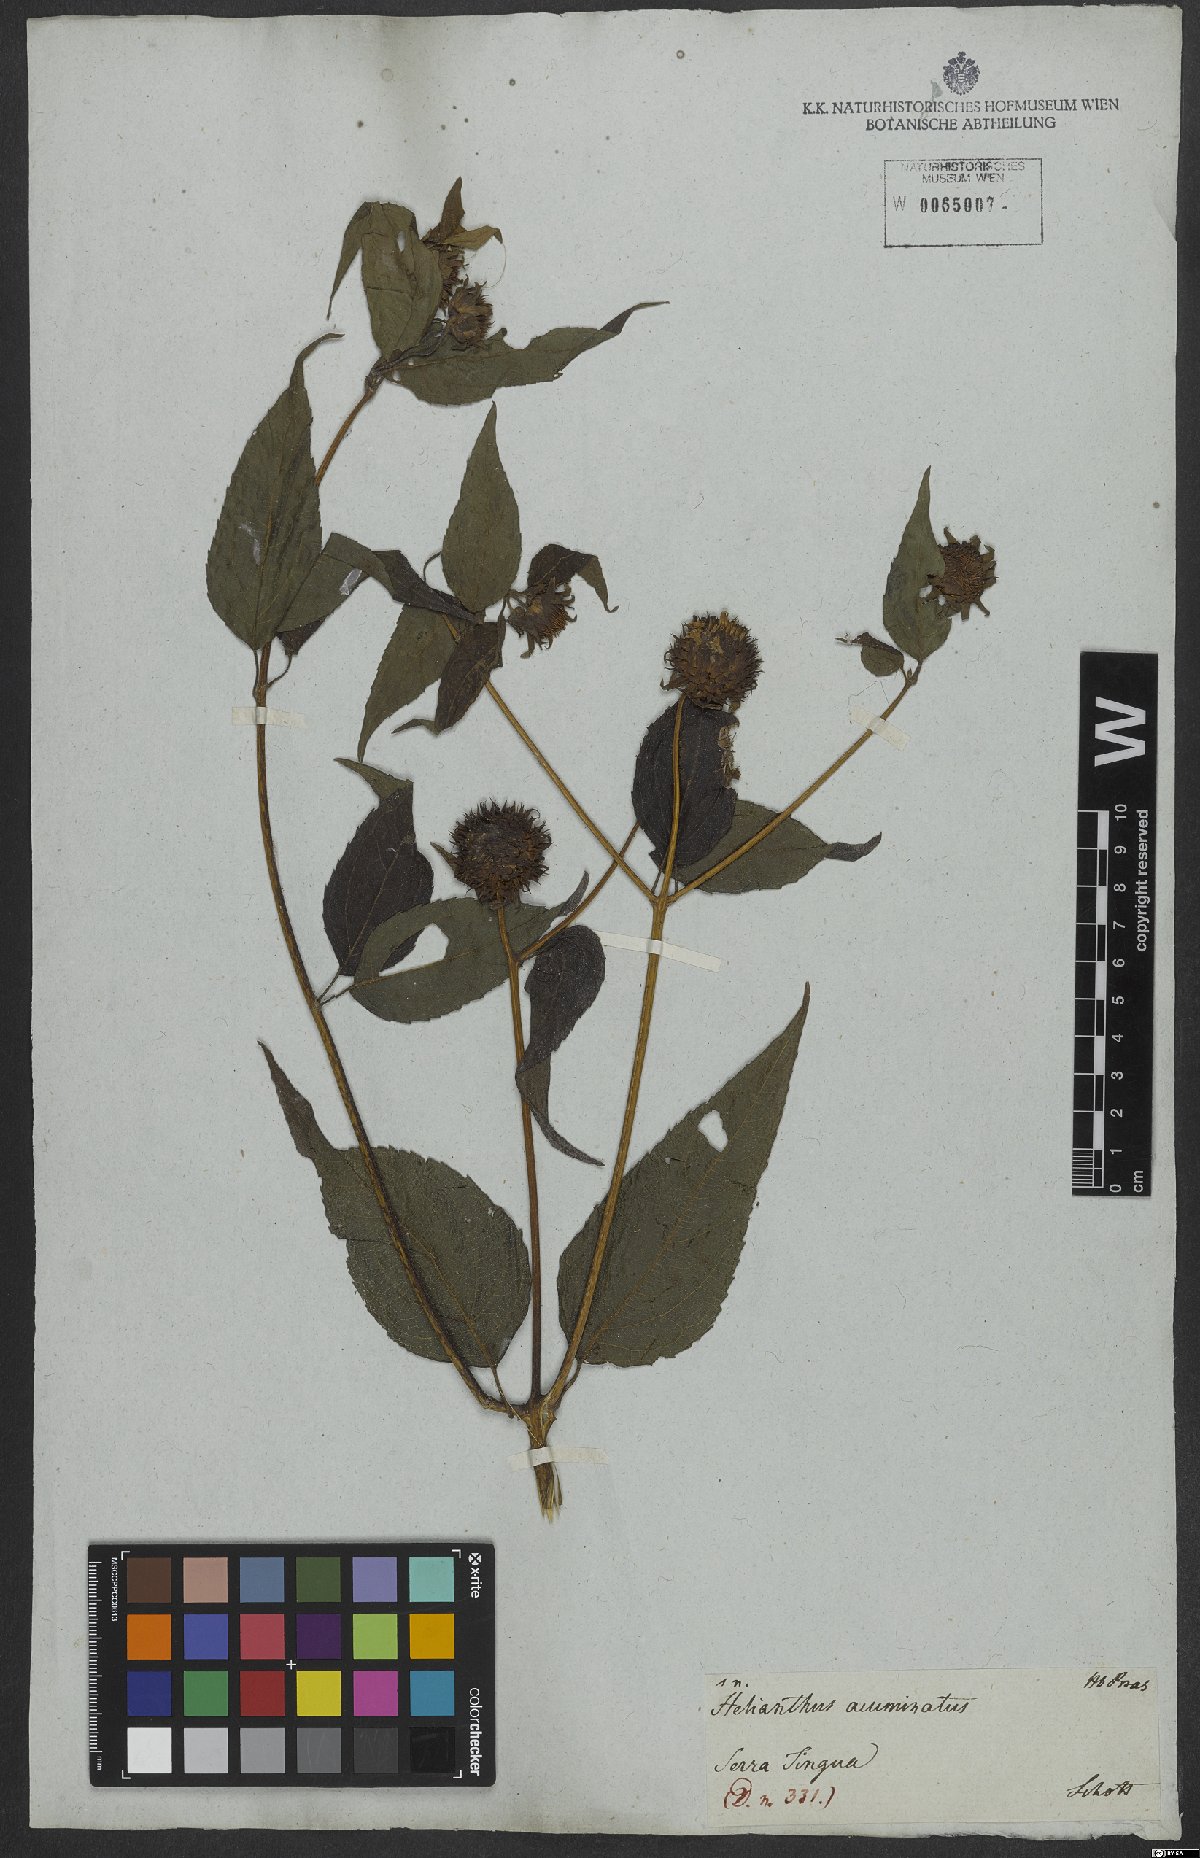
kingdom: Plantae
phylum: Tracheophyta
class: Magnoliopsida
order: Asterales
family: Asteraceae
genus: Viguiera
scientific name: Viguiera dentata
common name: Toothleaf
